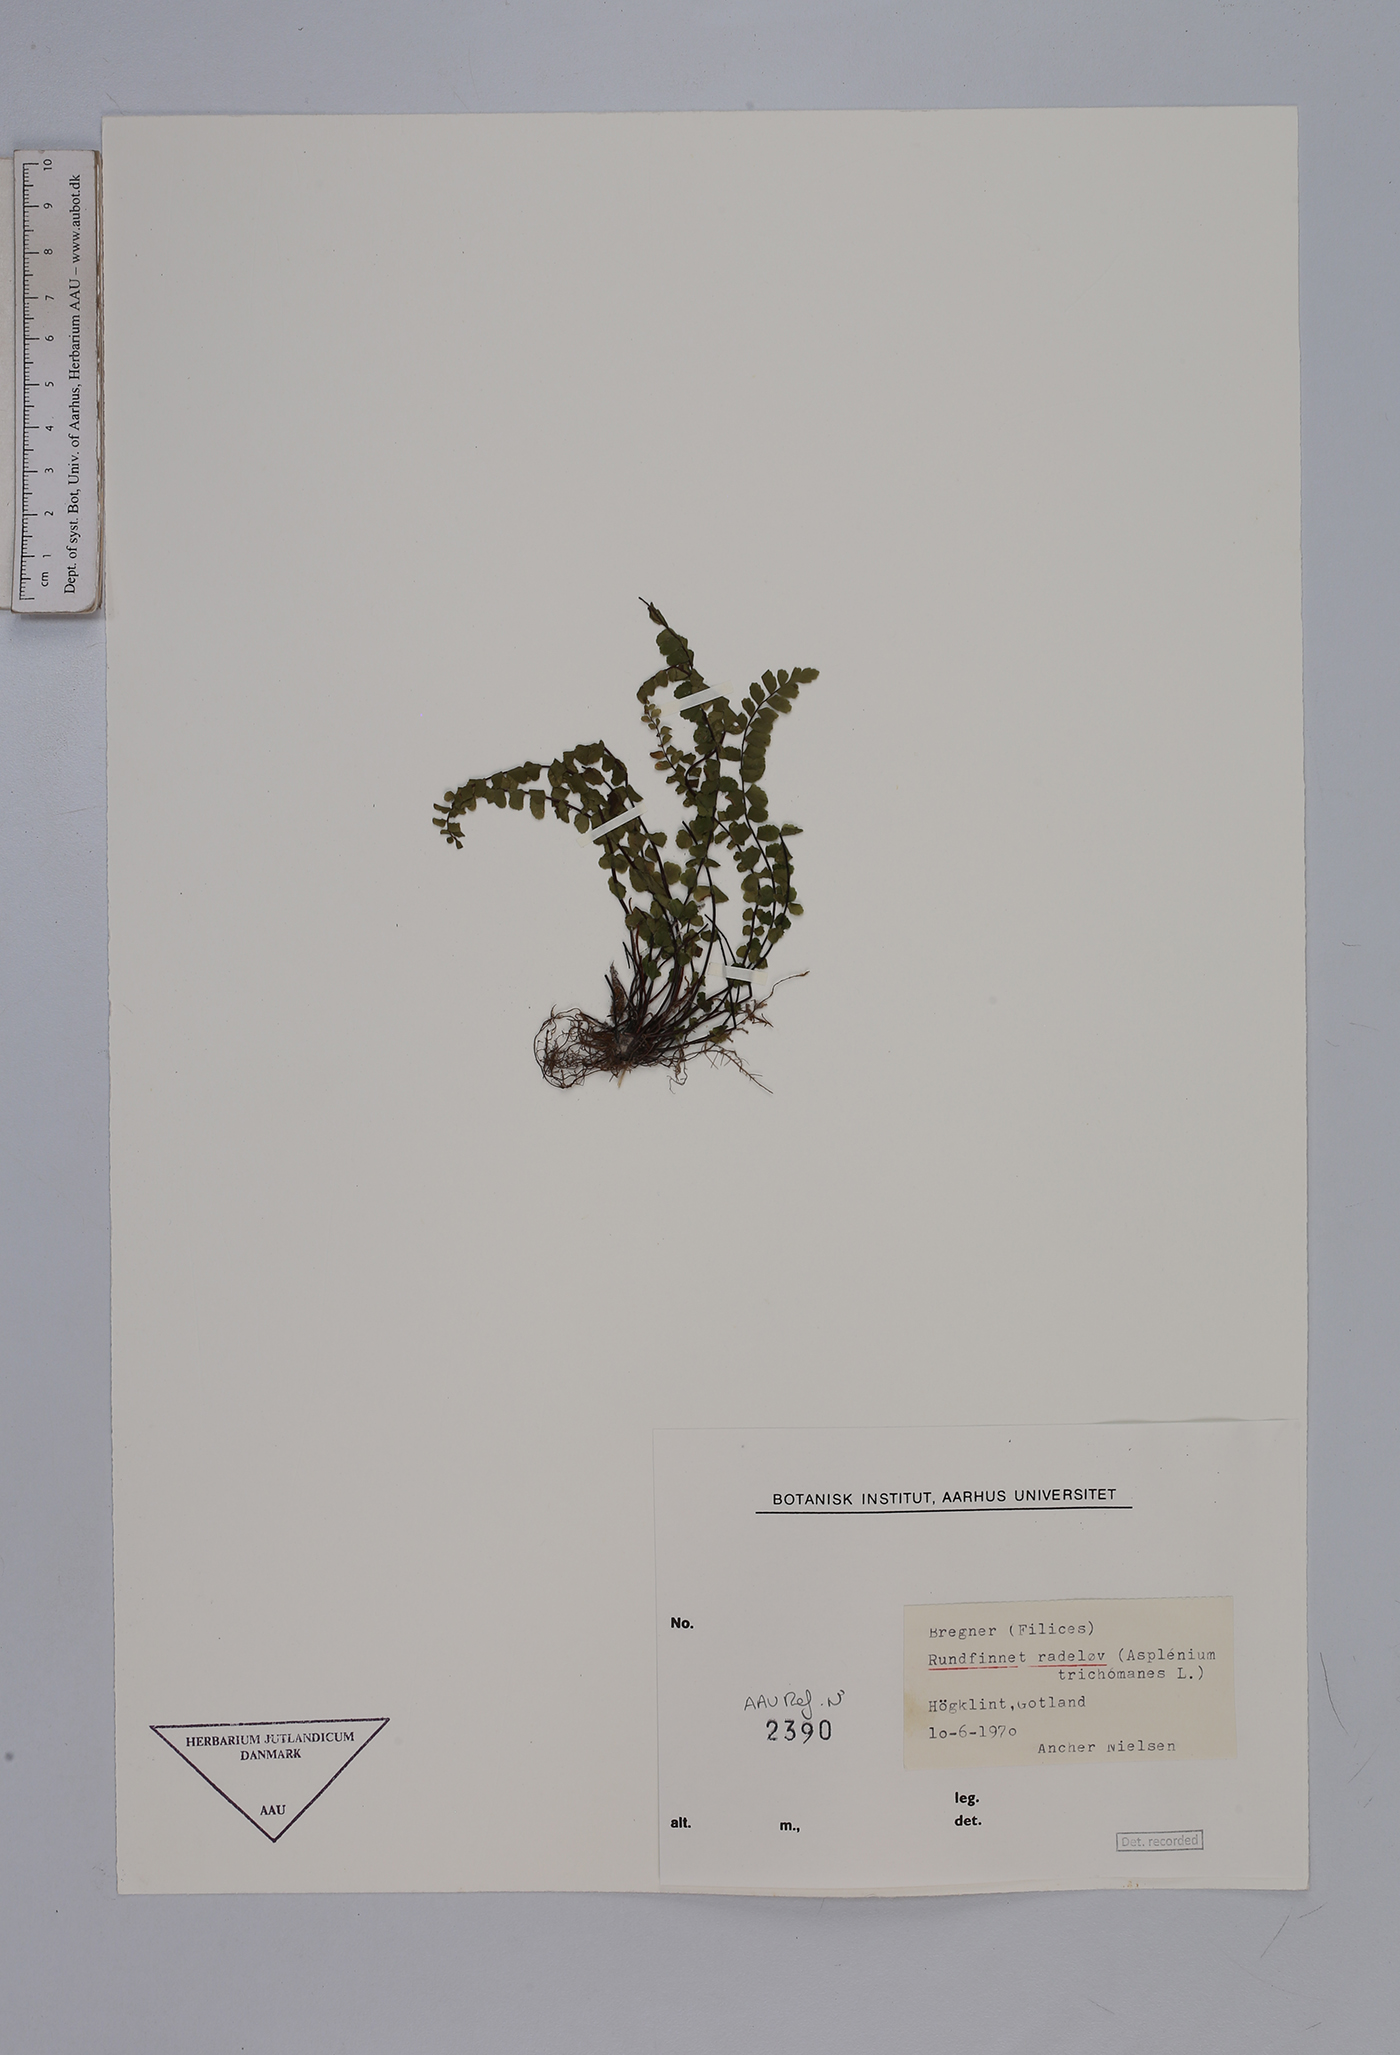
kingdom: Plantae
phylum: Tracheophyta
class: Polypodiopsida
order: Polypodiales
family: Aspleniaceae
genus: Asplenium
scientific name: Asplenium trichomanes
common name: Maidenhair spleenwort
